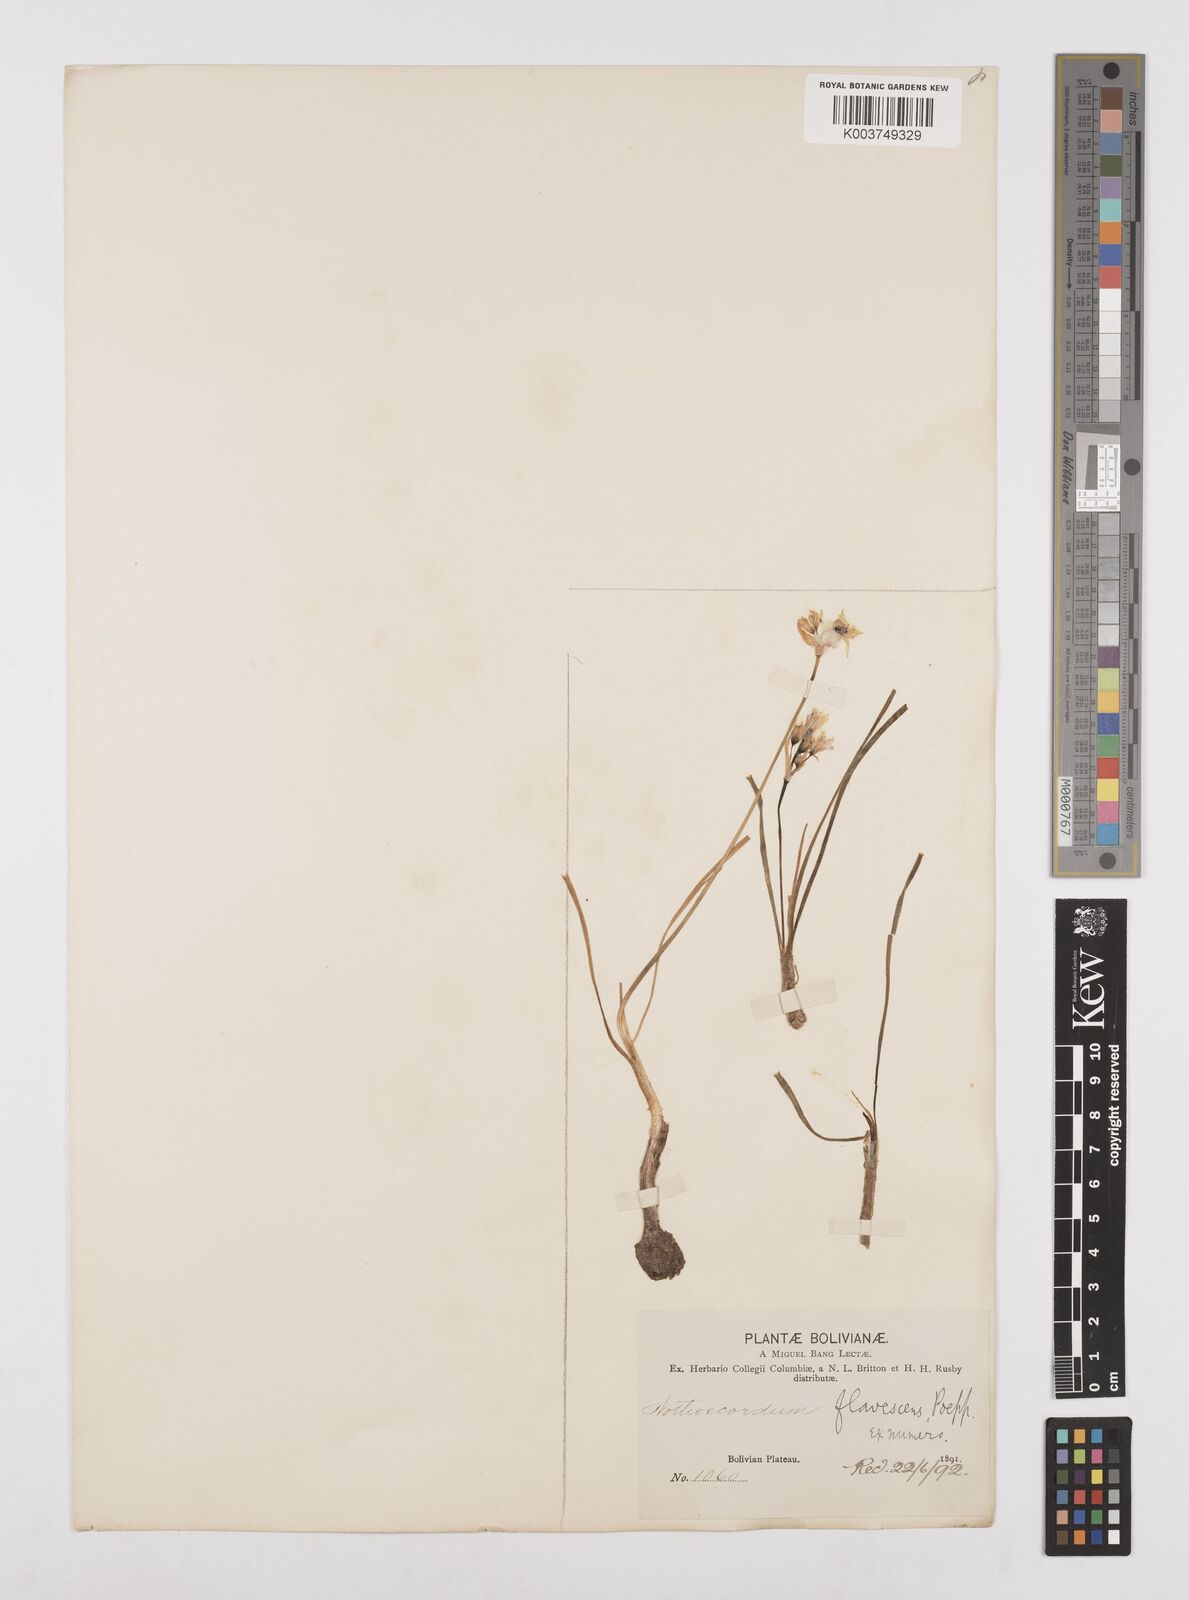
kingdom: Plantae
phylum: Tracheophyta
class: Liliopsida
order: Asparagales
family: Amaryllidaceae
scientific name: Amaryllidaceae
